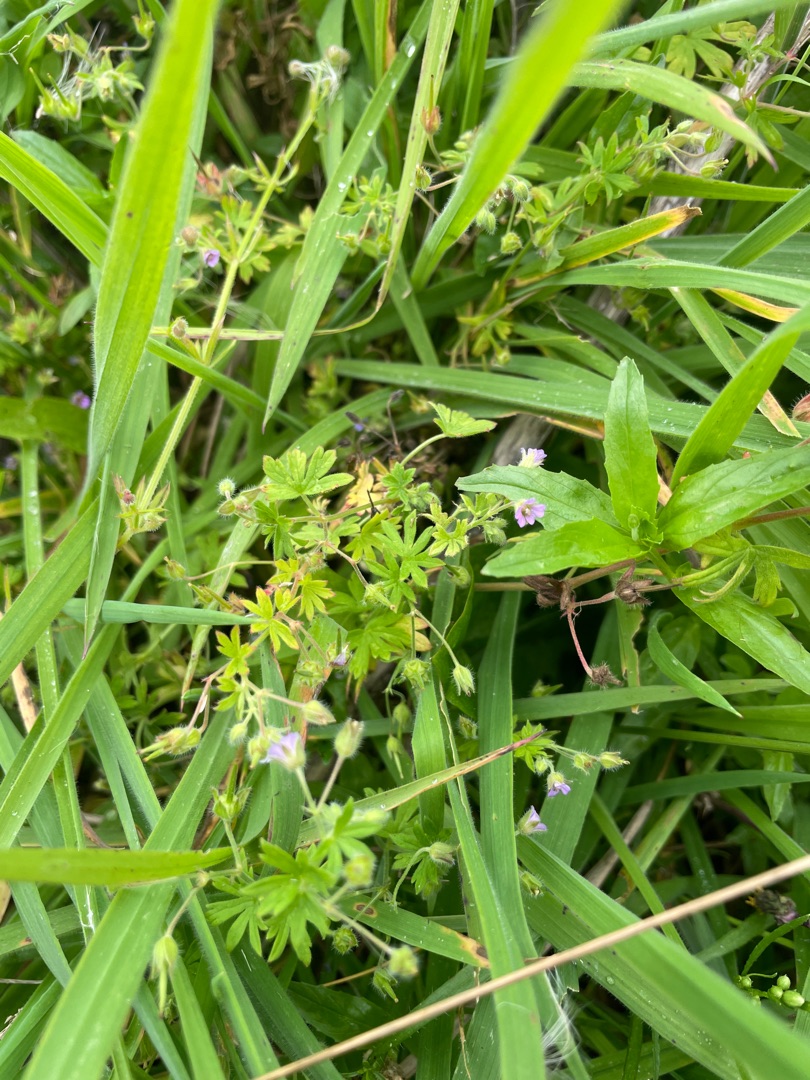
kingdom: Plantae
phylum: Tracheophyta
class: Magnoliopsida
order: Geraniales
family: Geraniaceae
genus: Geranium
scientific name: Geranium pusillum
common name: Liden storkenæb
